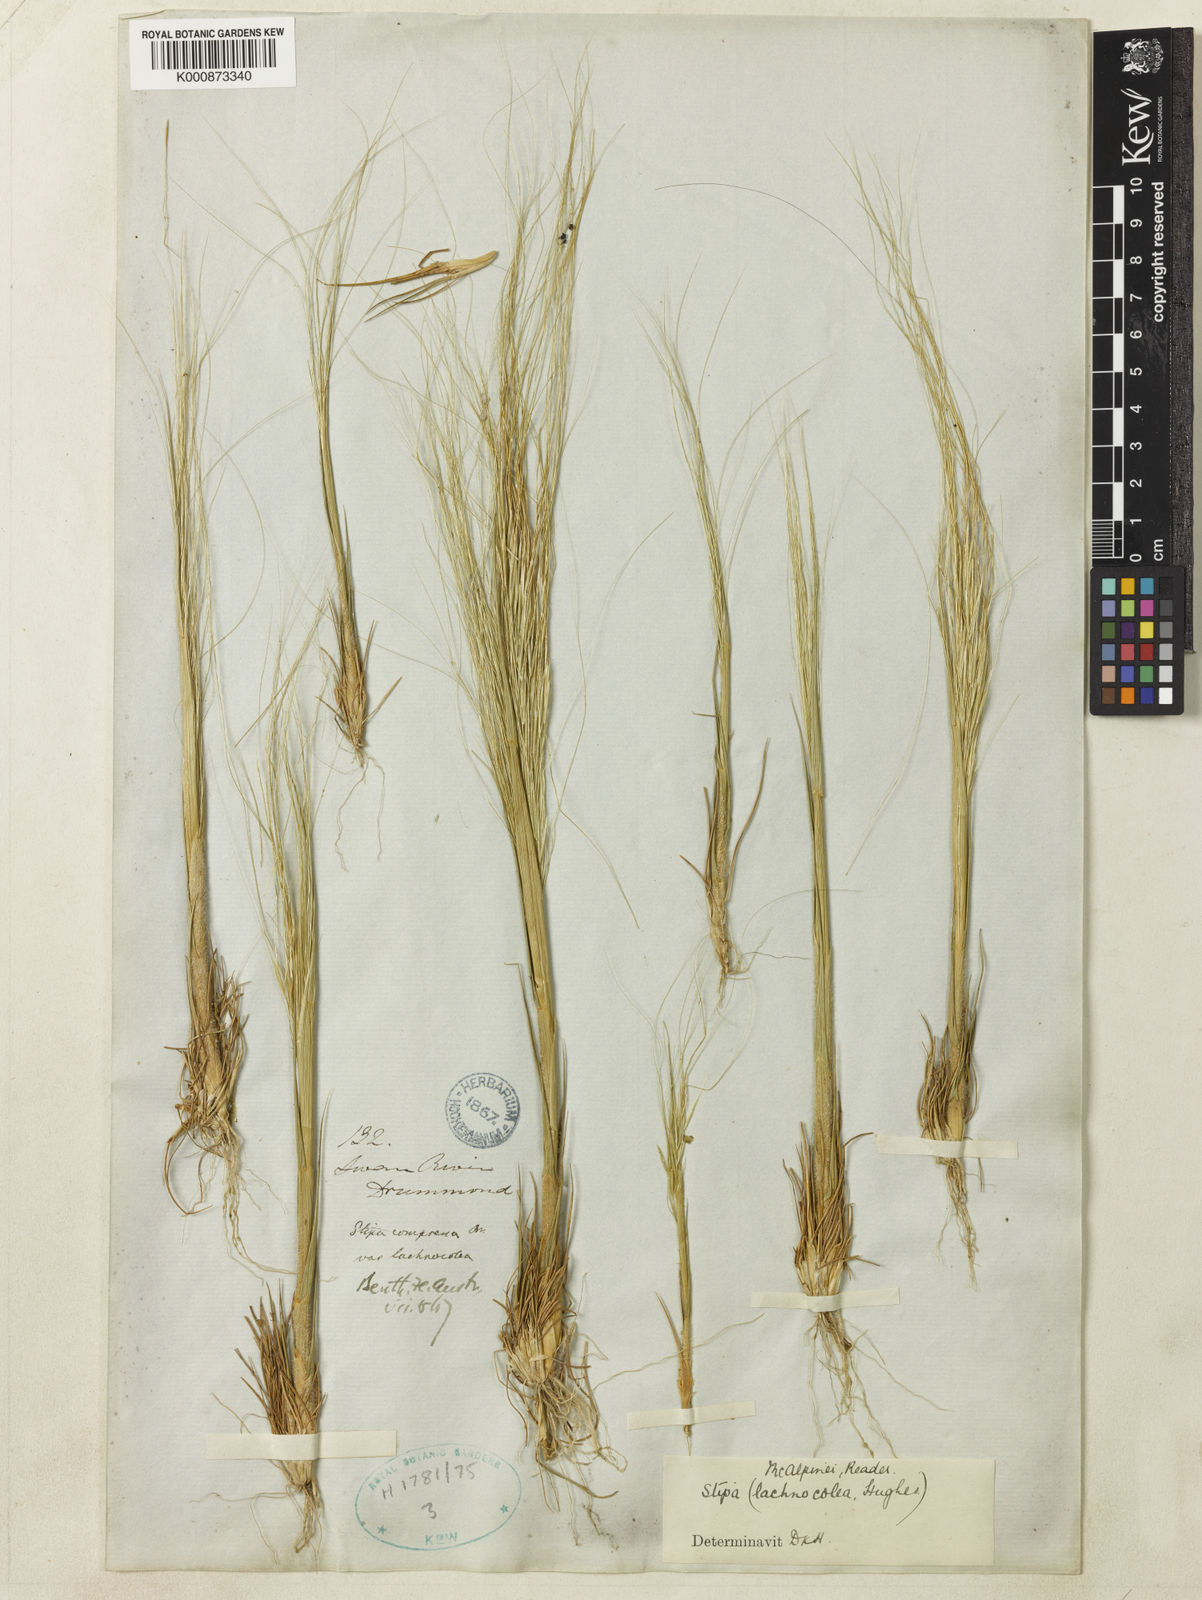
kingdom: Plantae
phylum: Tracheophyta
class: Liliopsida
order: Poales
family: Poaceae
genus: Austrostipa
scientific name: Austrostipa macalpinei
